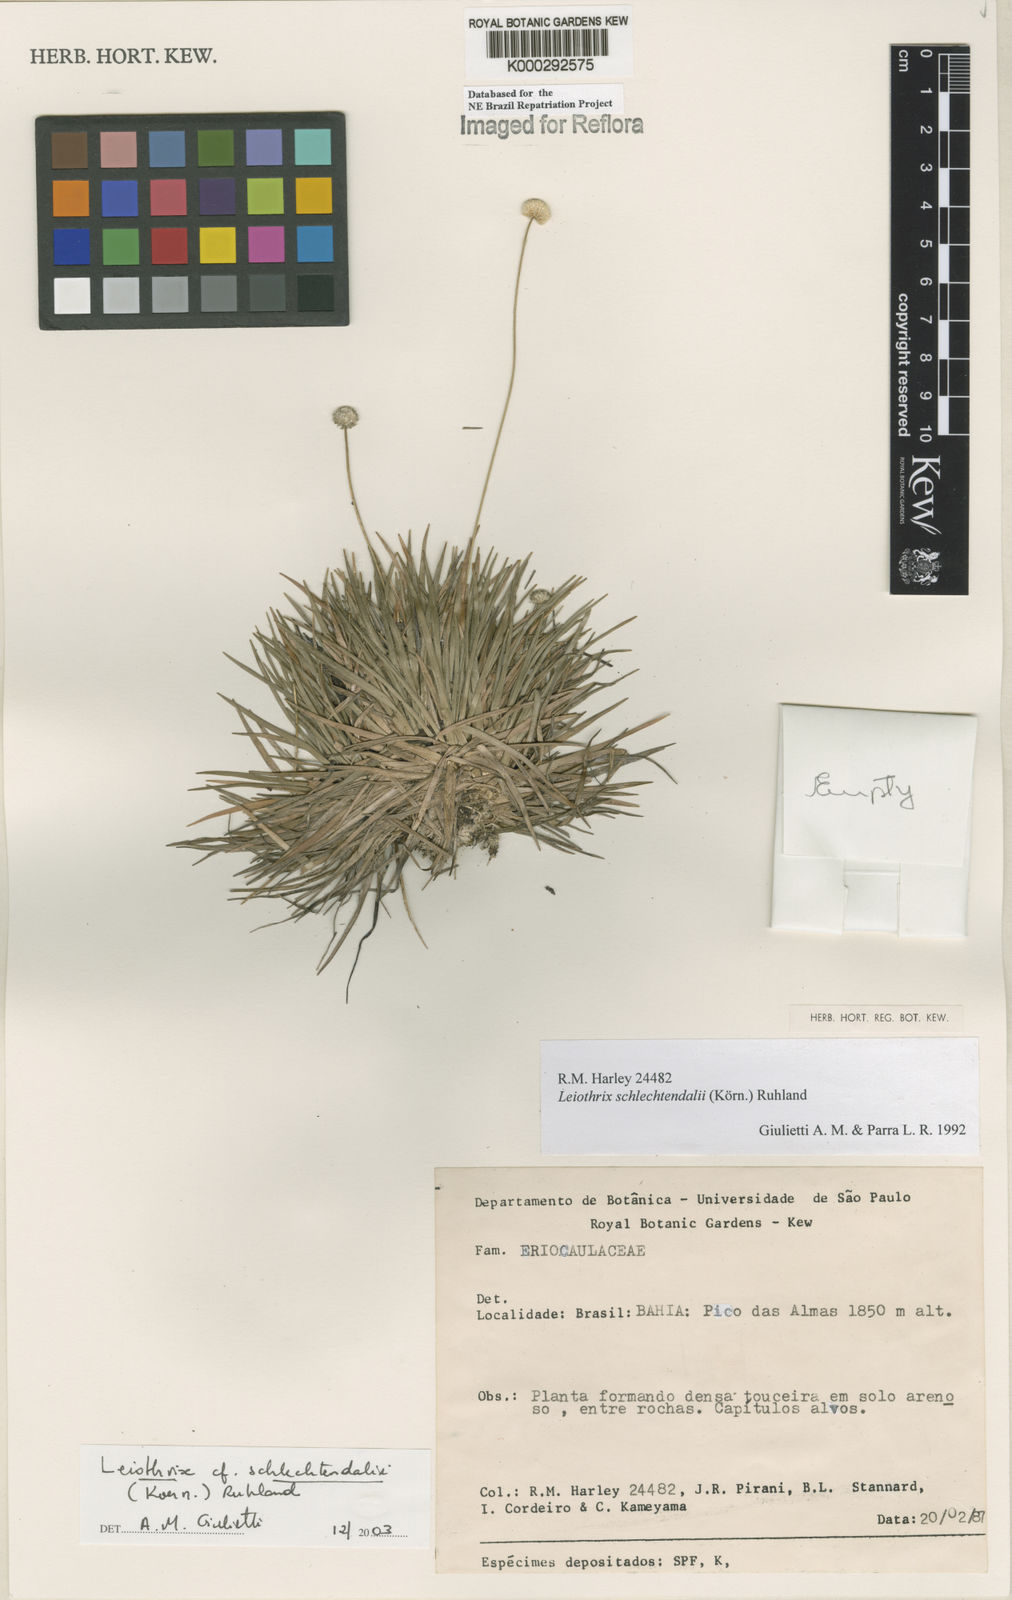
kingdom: Plantae
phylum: Tracheophyta
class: Liliopsida
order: Poales
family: Eriocaulaceae
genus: Leiothrix
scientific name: Leiothrix schlechtendalii
